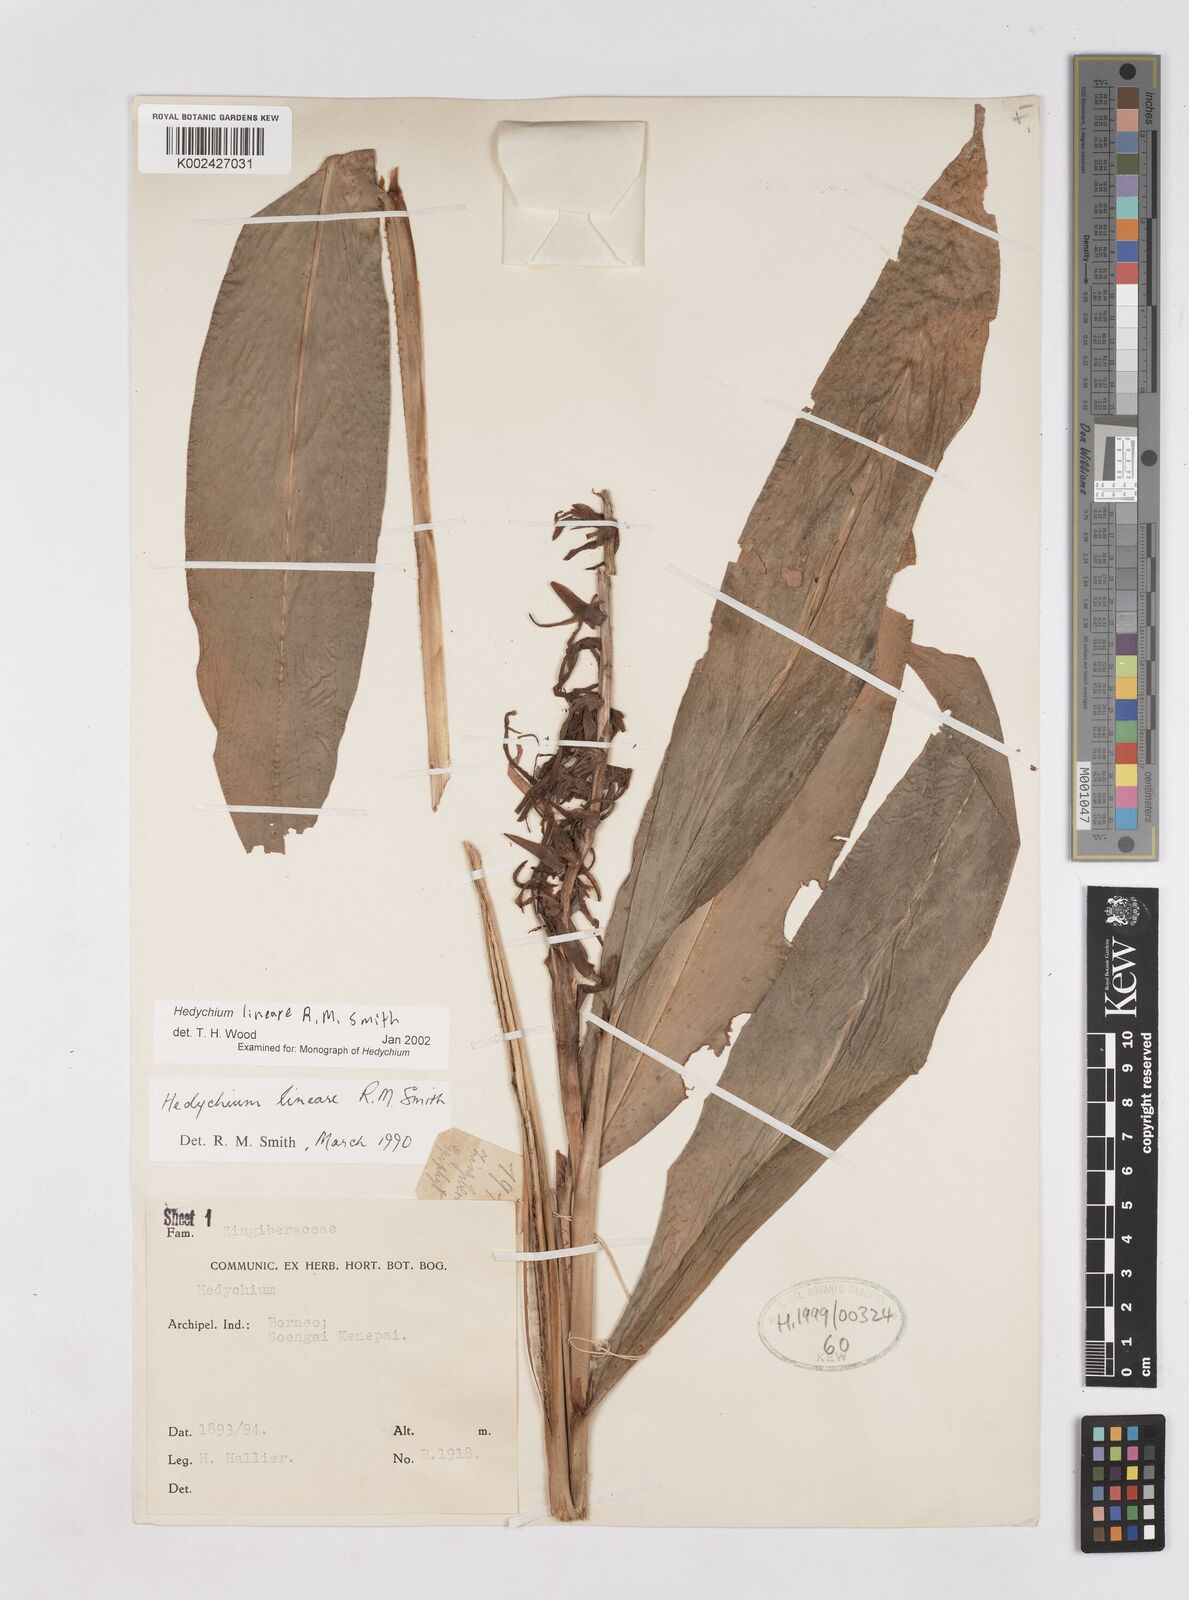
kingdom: Plantae
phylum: Tracheophyta
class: Liliopsida
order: Zingiberales
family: Zingiberaceae
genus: Hedychium
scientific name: Hedychium lineare
